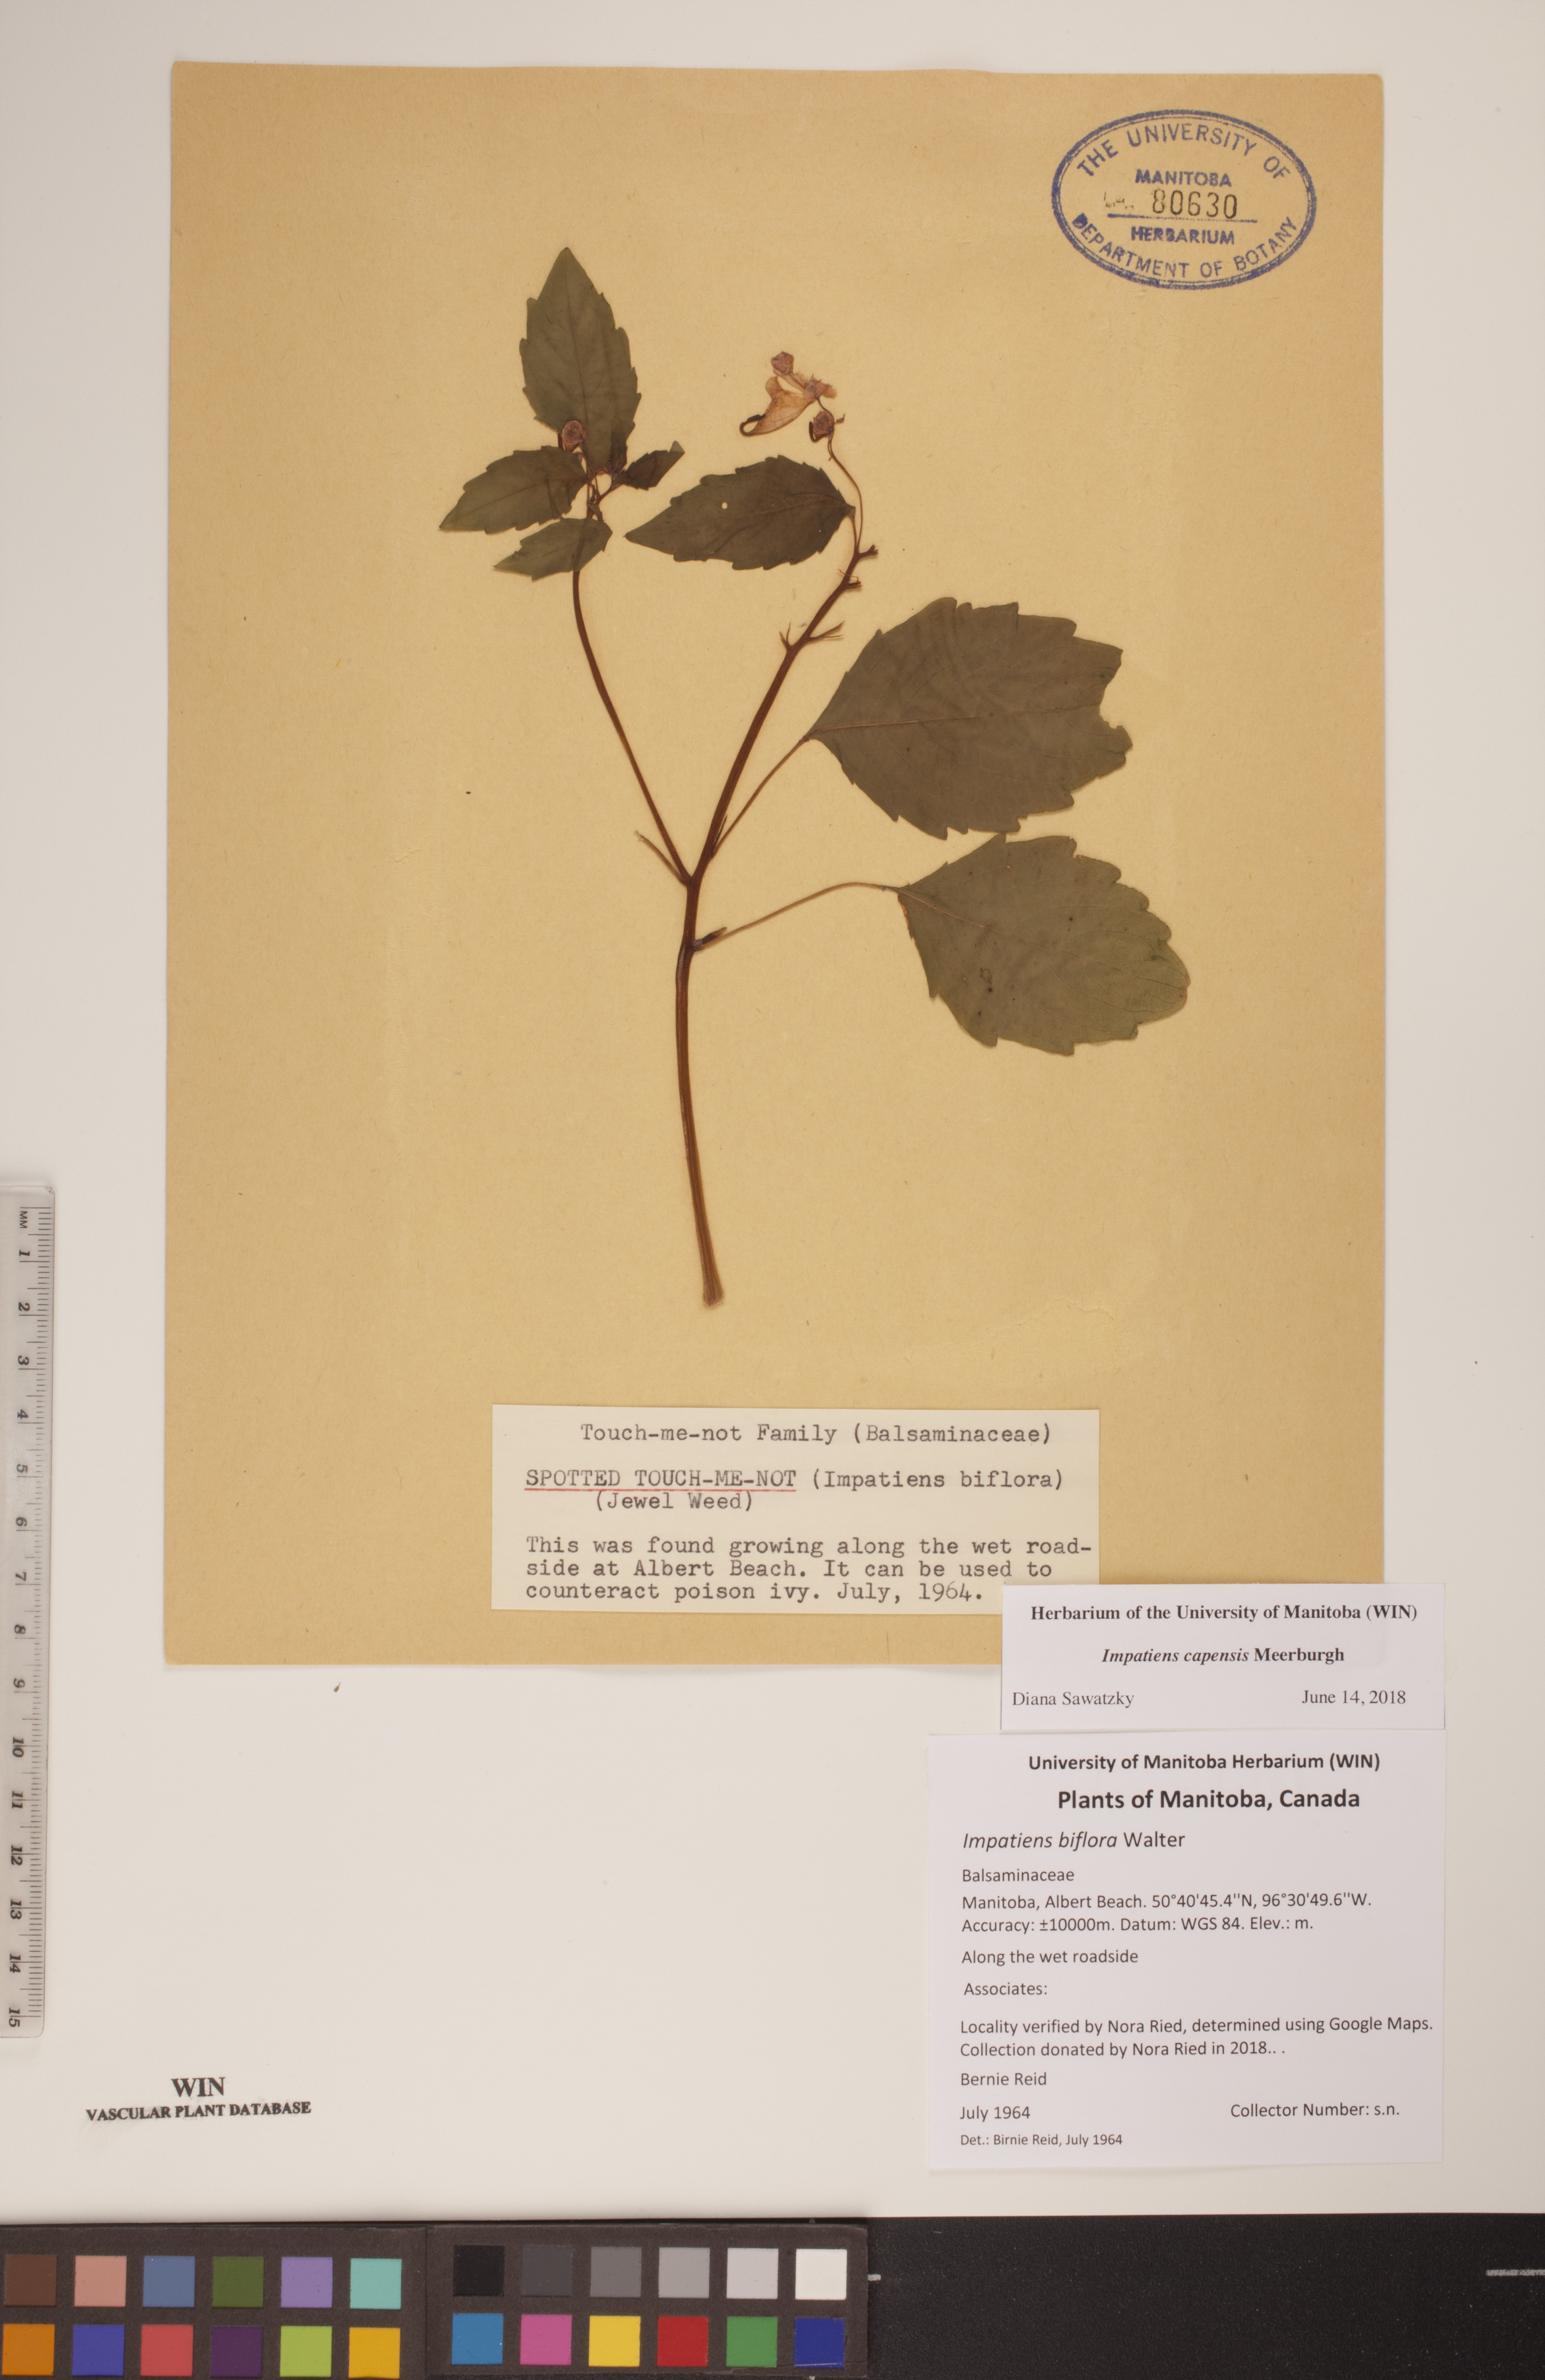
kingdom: Plantae
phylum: Tracheophyta
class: Magnoliopsida
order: Ericales
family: Balsaminaceae
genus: Impatiens
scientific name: Impatiens capensis
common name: Orange balsam
